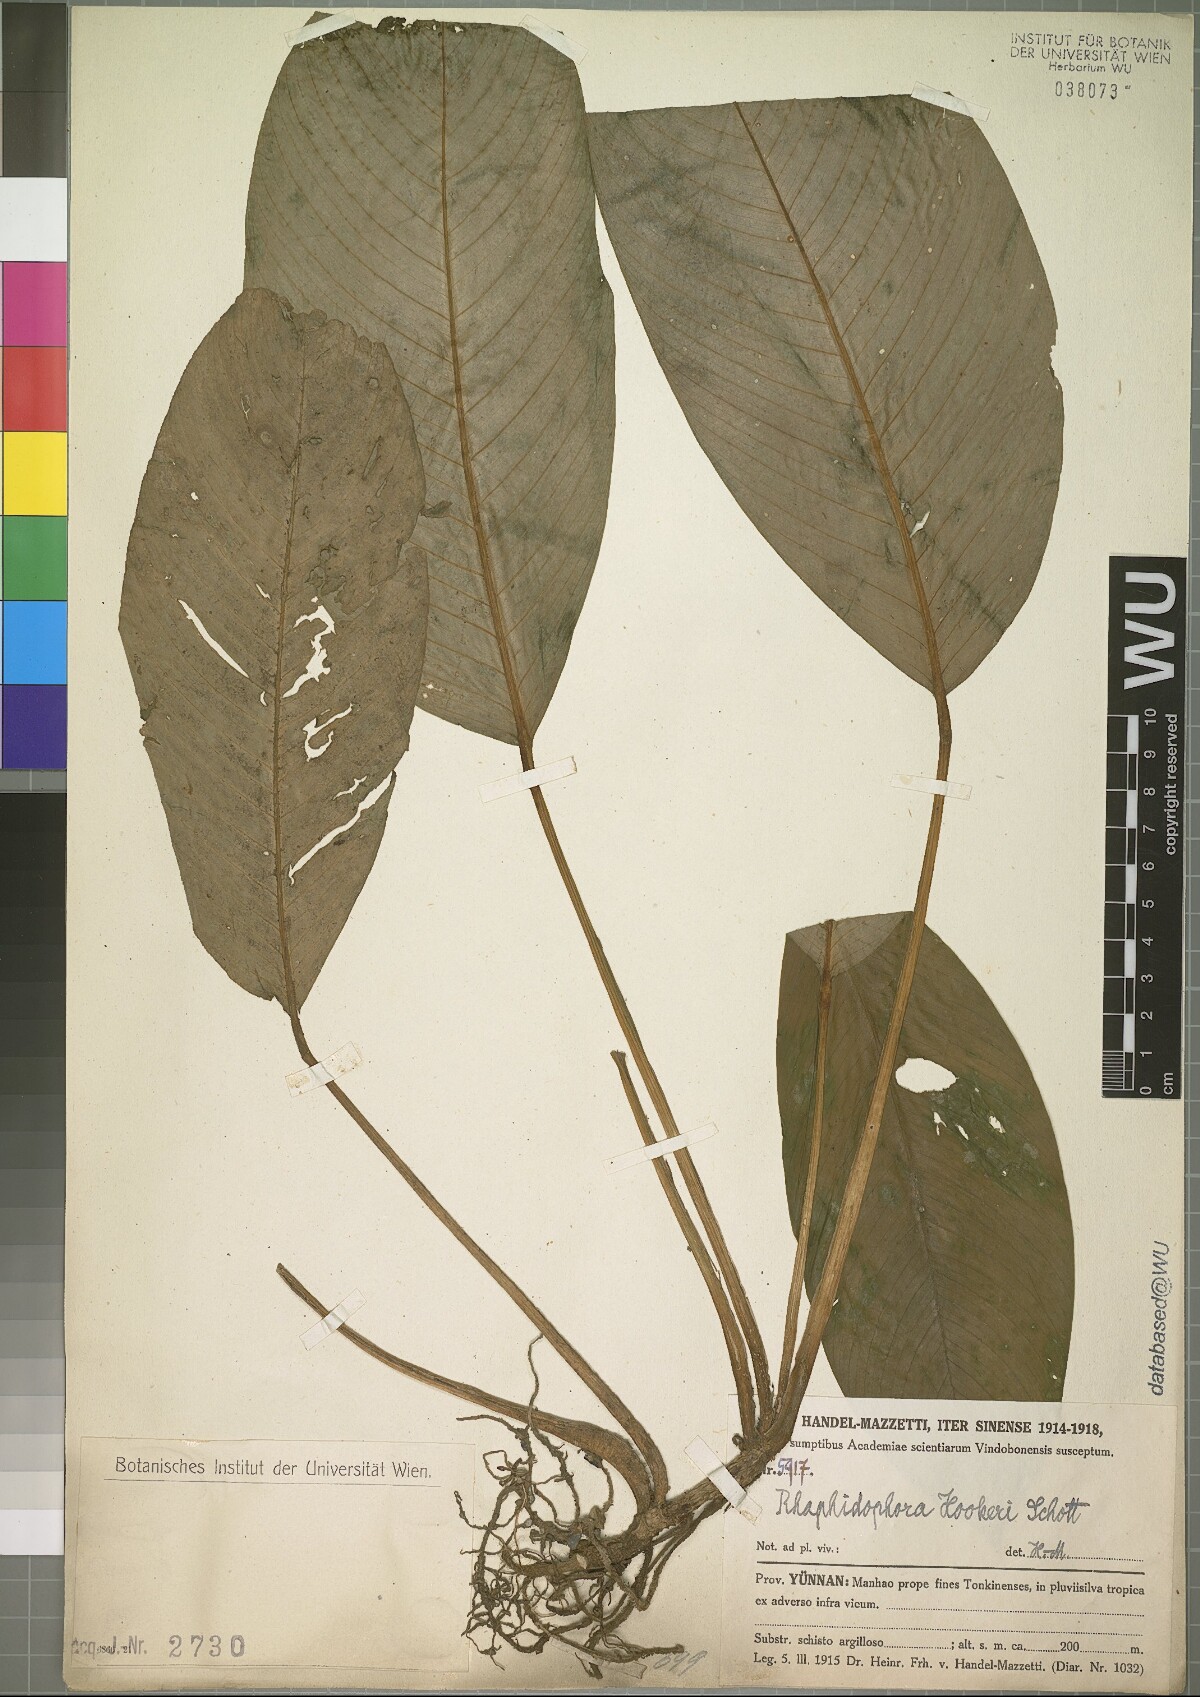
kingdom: Plantae
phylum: Tracheophyta
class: Liliopsida
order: Alismatales
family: Araceae
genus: Rhaphidophora
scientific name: Rhaphidophora hookeri
